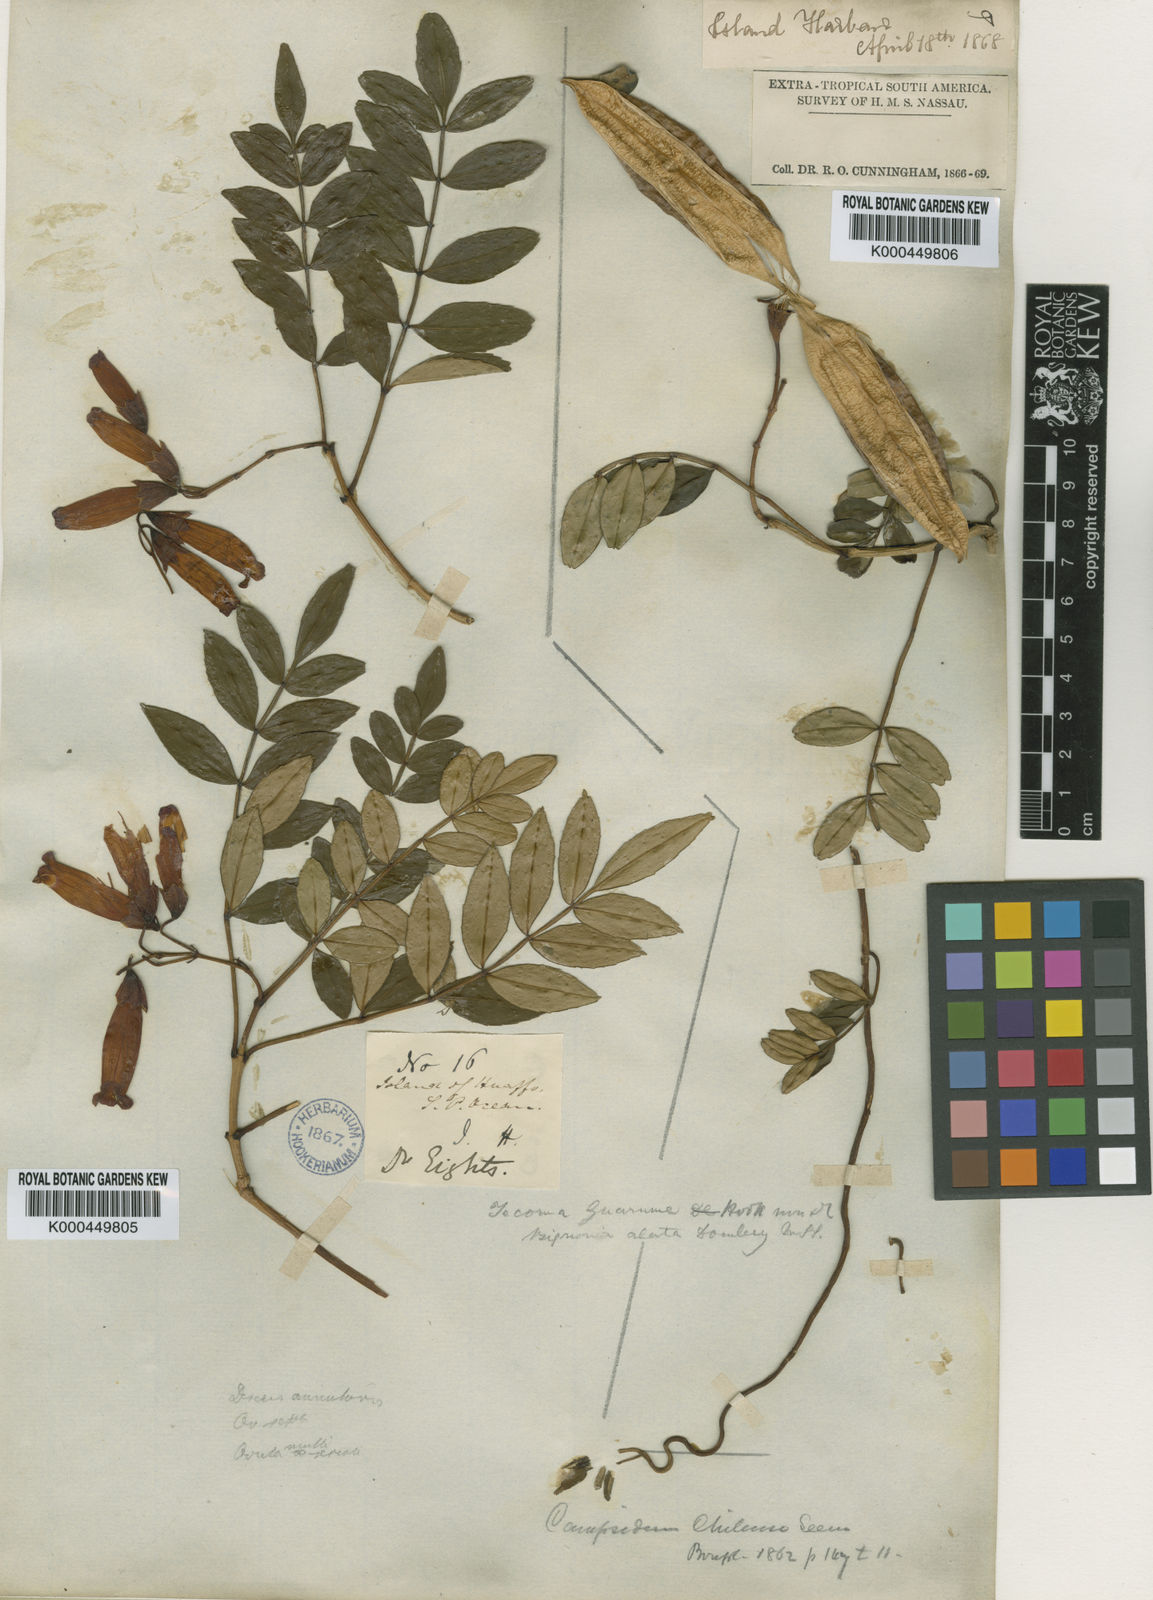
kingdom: Plantae
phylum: Tracheophyta
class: Magnoliopsida
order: Lamiales
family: Bignoniaceae
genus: Campsidium
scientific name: Campsidium valdivianum
